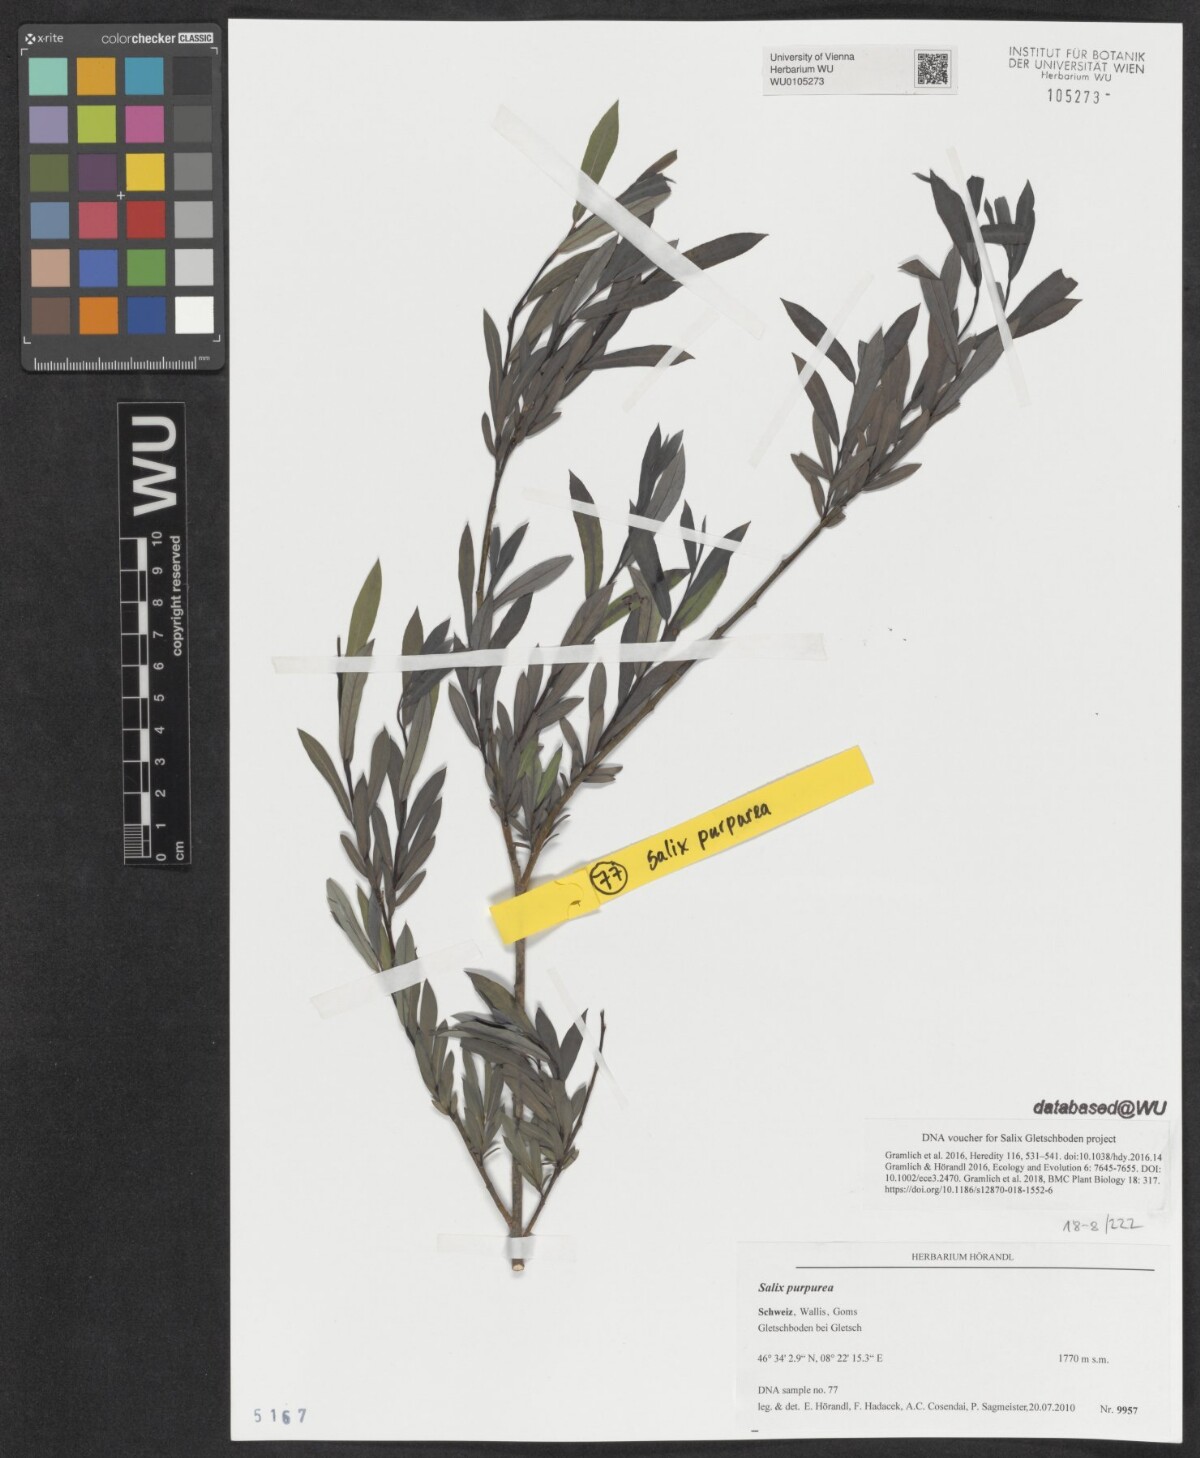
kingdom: Plantae
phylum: Tracheophyta
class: Magnoliopsida
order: Malpighiales
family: Salicaceae
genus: Salix
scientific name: Salix purpurea
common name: Purple willow
